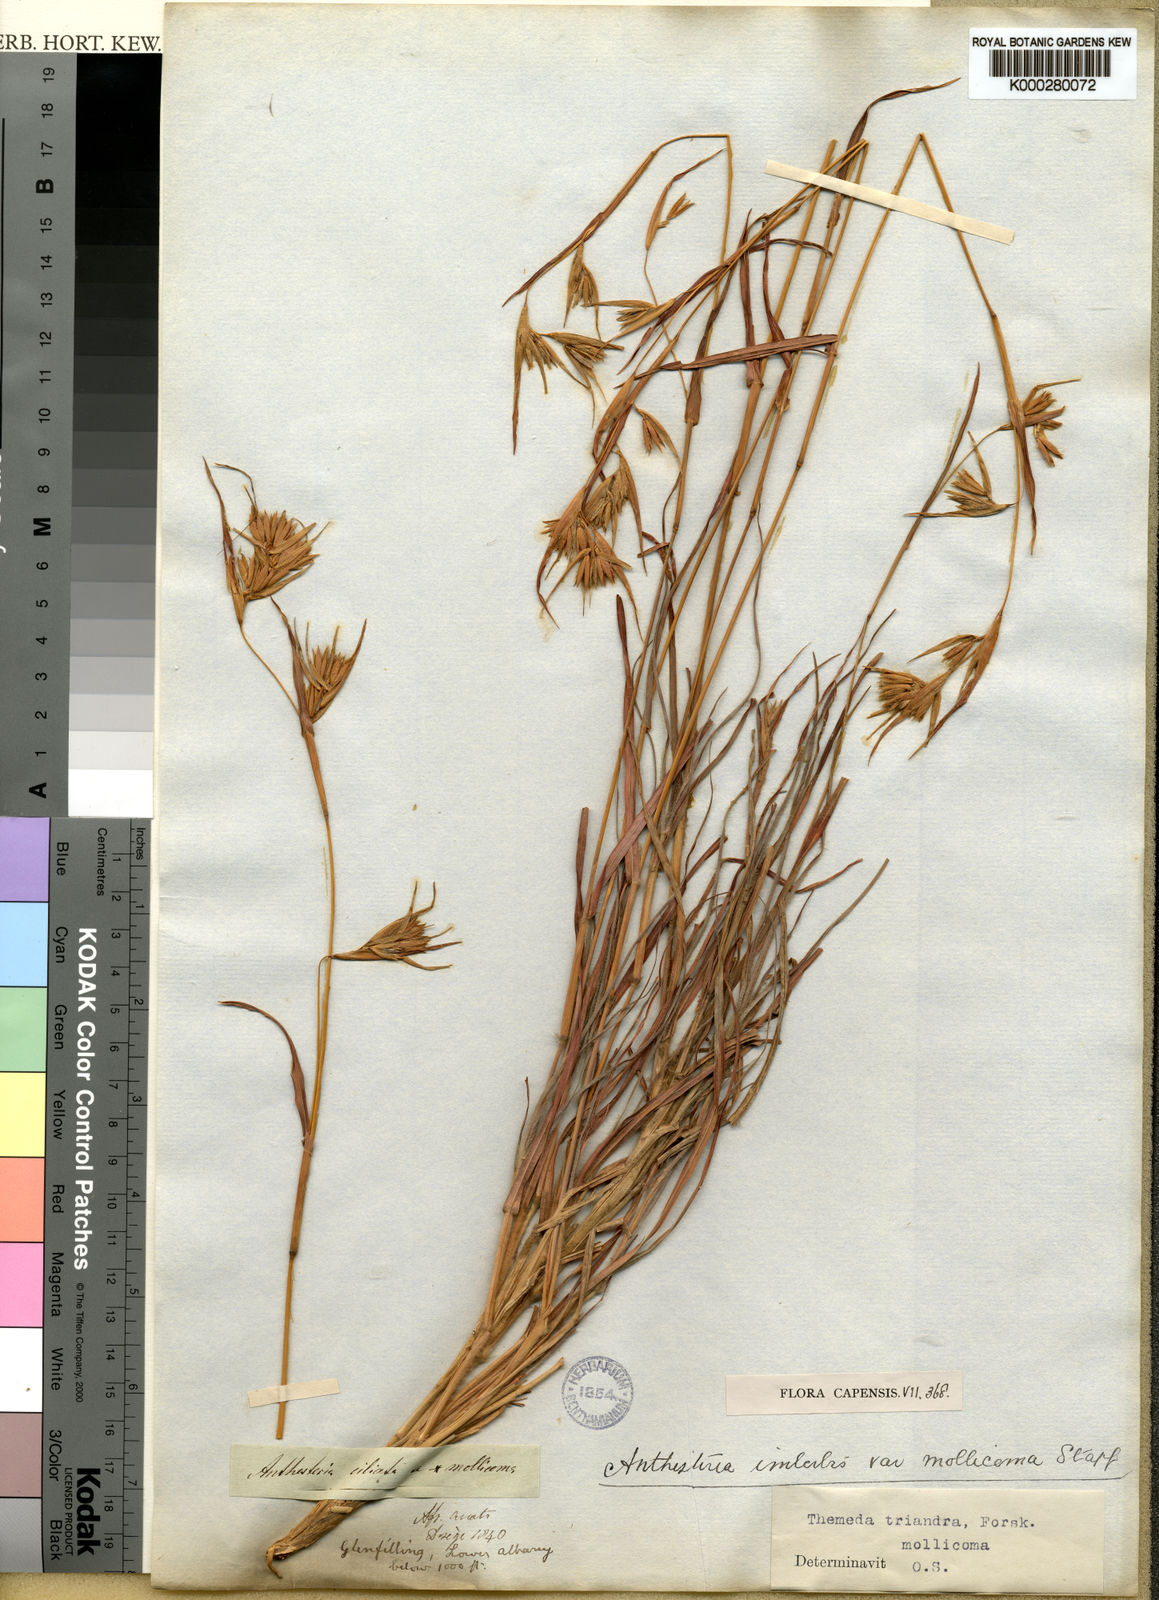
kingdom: Plantae
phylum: Tracheophyta
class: Liliopsida
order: Poales
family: Poaceae
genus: Themeda
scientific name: Themeda triandra
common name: Kangaroo grass
